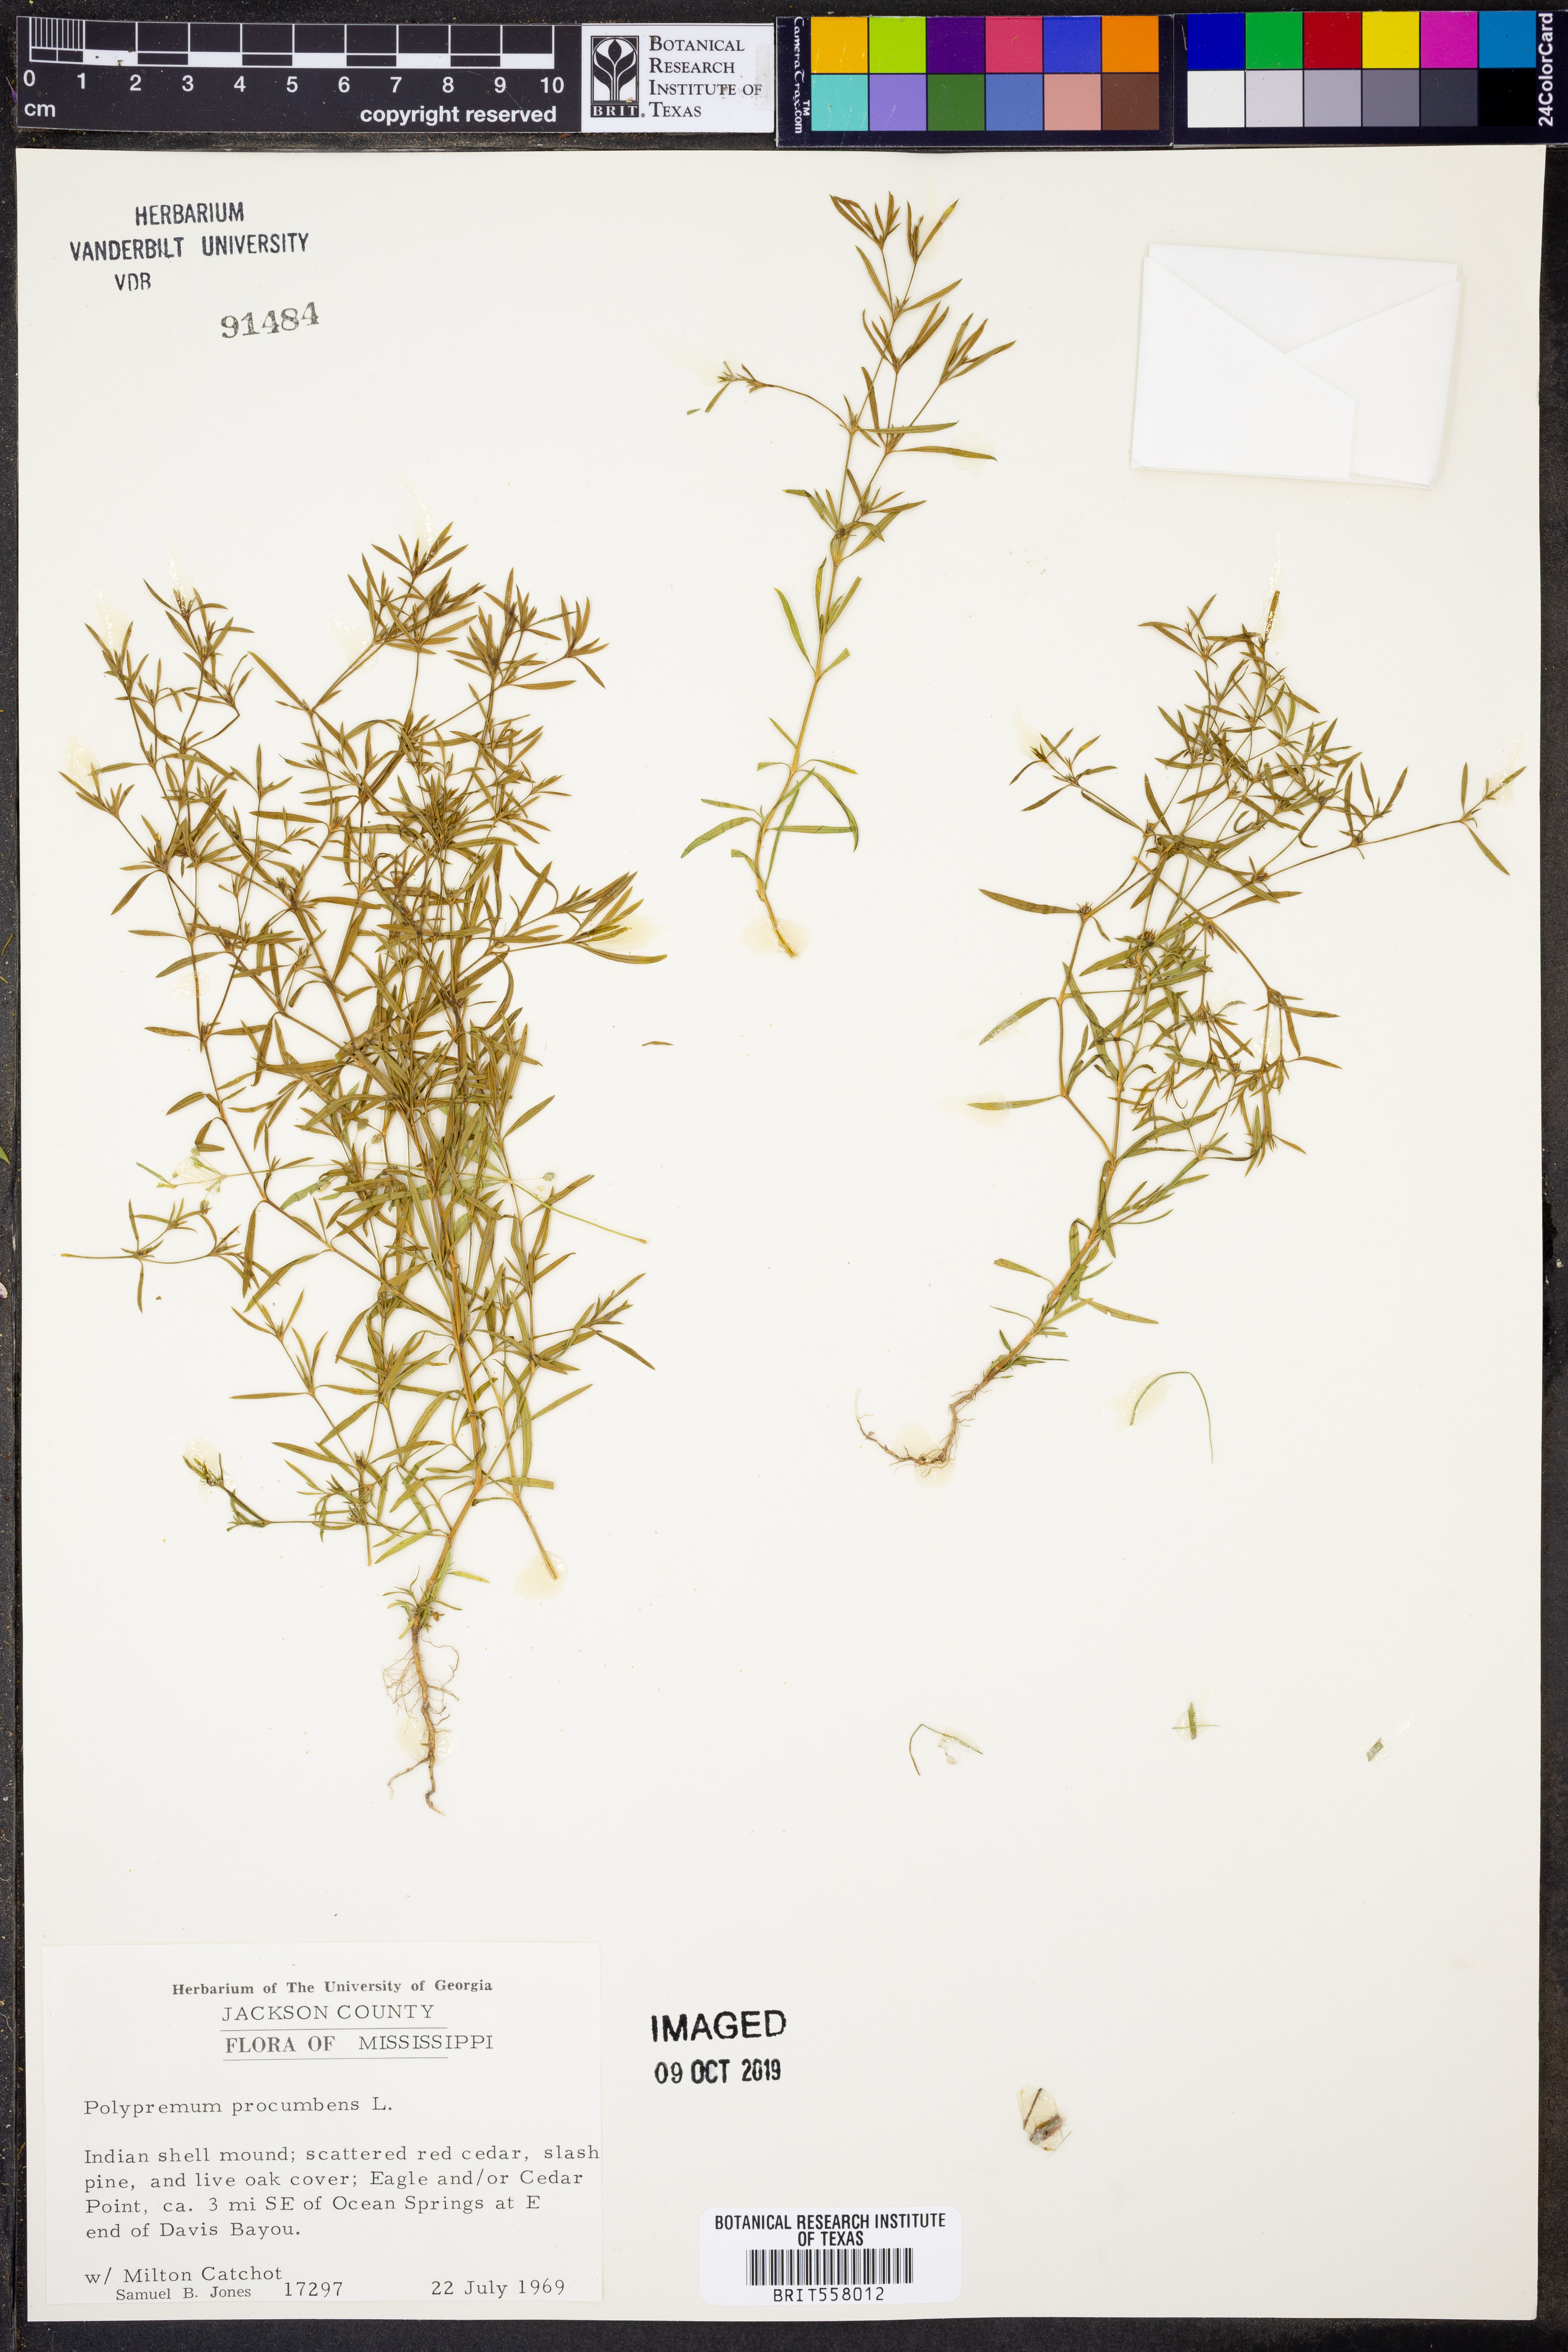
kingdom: Plantae
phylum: Tracheophyta
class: Magnoliopsida
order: Lamiales
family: Tetrachondraceae
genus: Polypremum
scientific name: Polypremum procumbens
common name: Juniper-leaf
